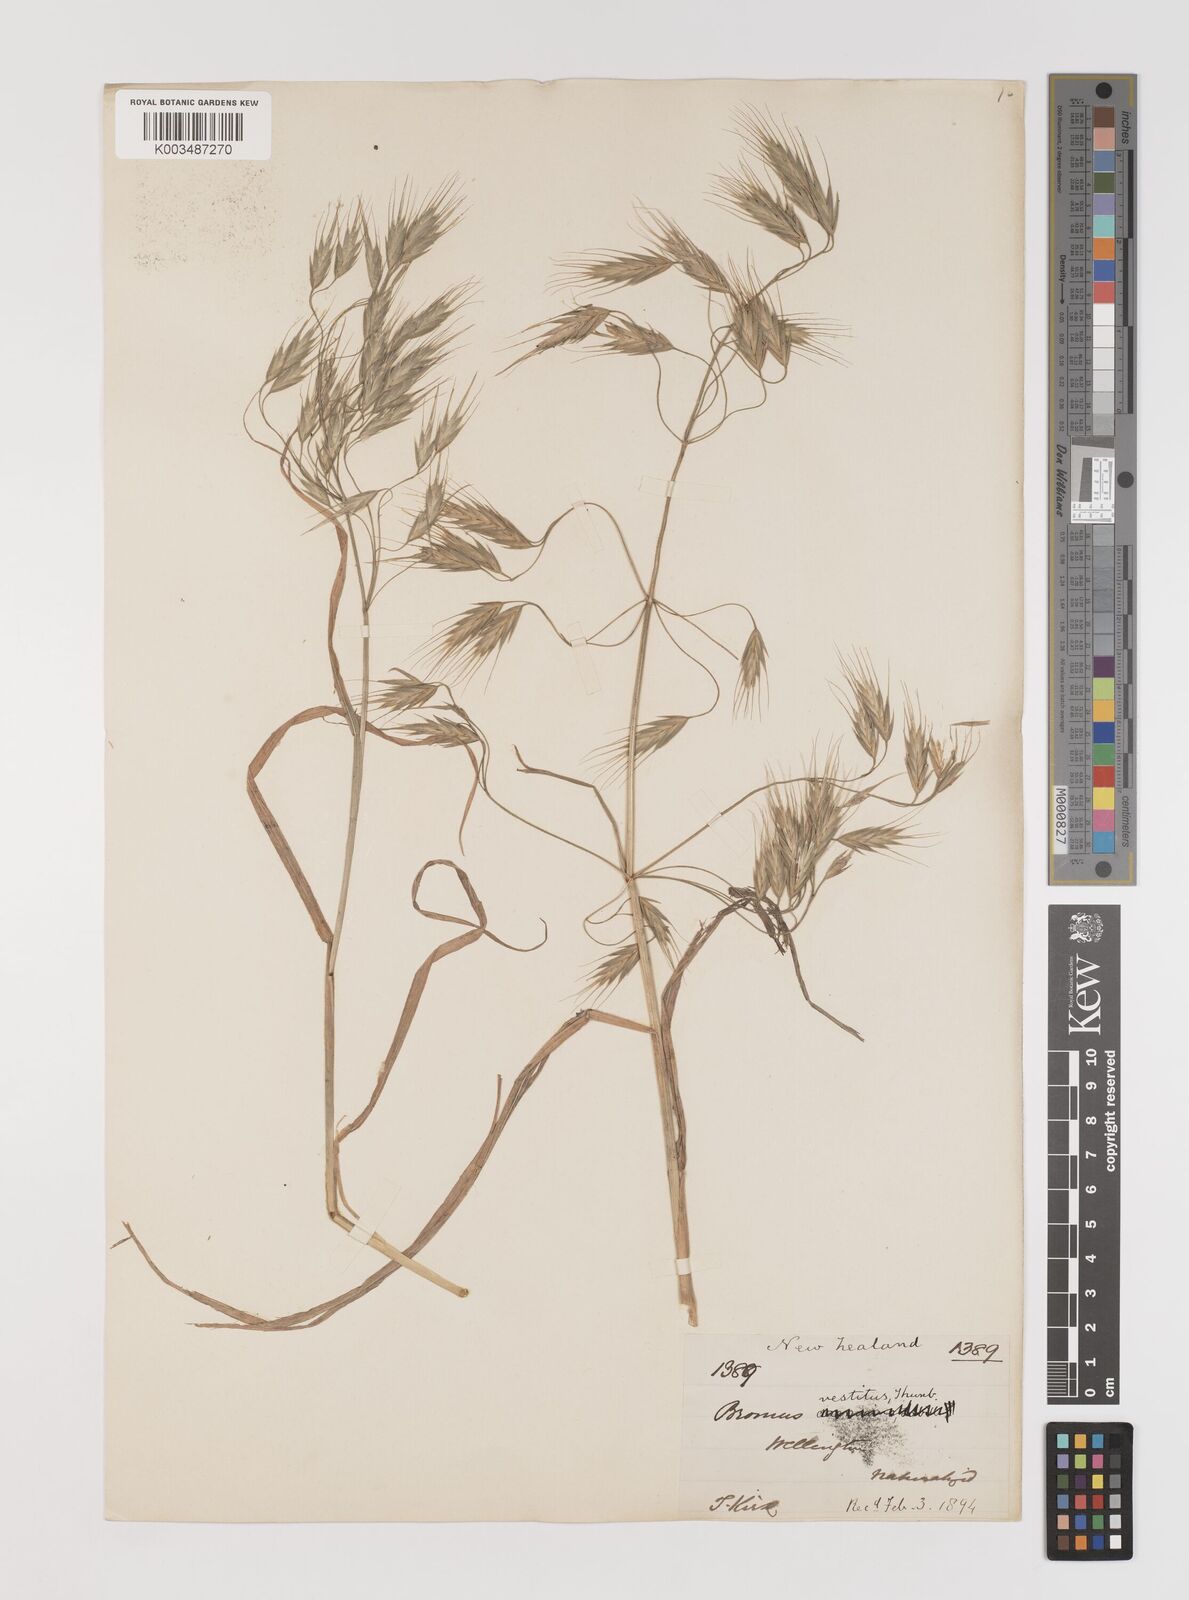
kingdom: Plantae
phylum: Tracheophyta
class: Liliopsida
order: Poales
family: Poaceae
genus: Bromus
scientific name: Bromus pectinatus
